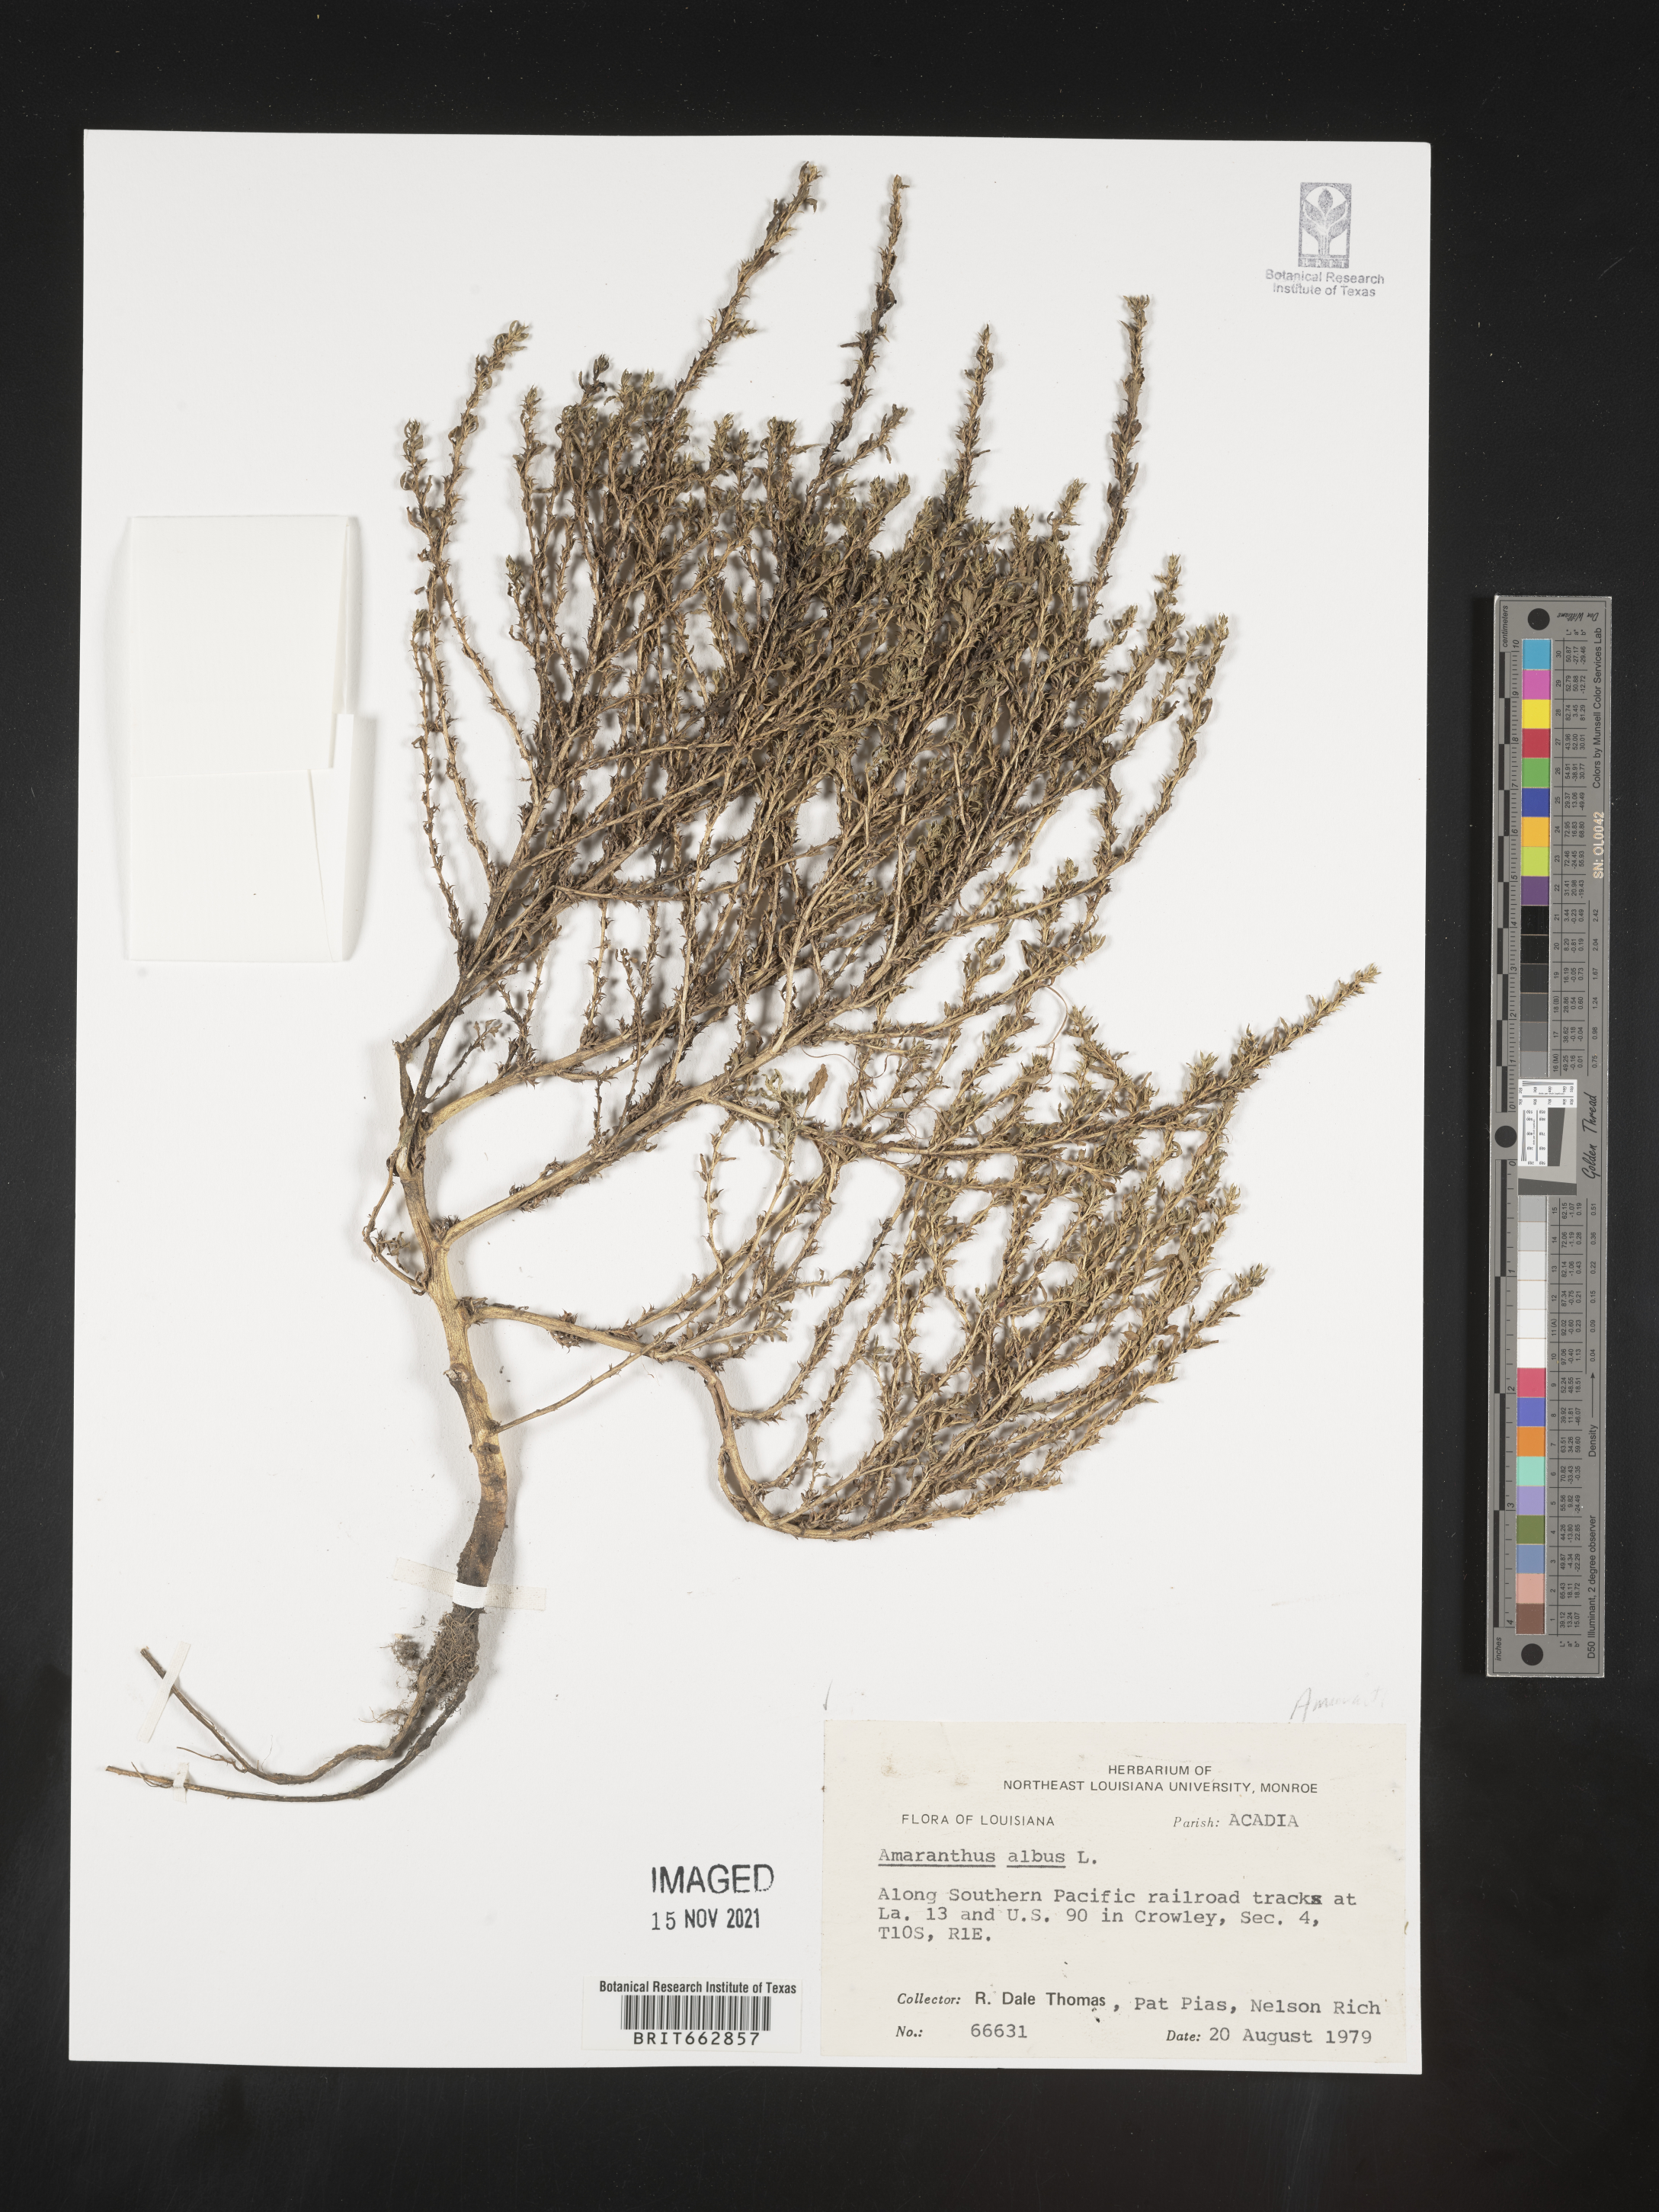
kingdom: Plantae
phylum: Tracheophyta
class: Magnoliopsida
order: Caryophyllales
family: Amaranthaceae
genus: Amaranthus
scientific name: Amaranthus albus
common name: White pigweed
